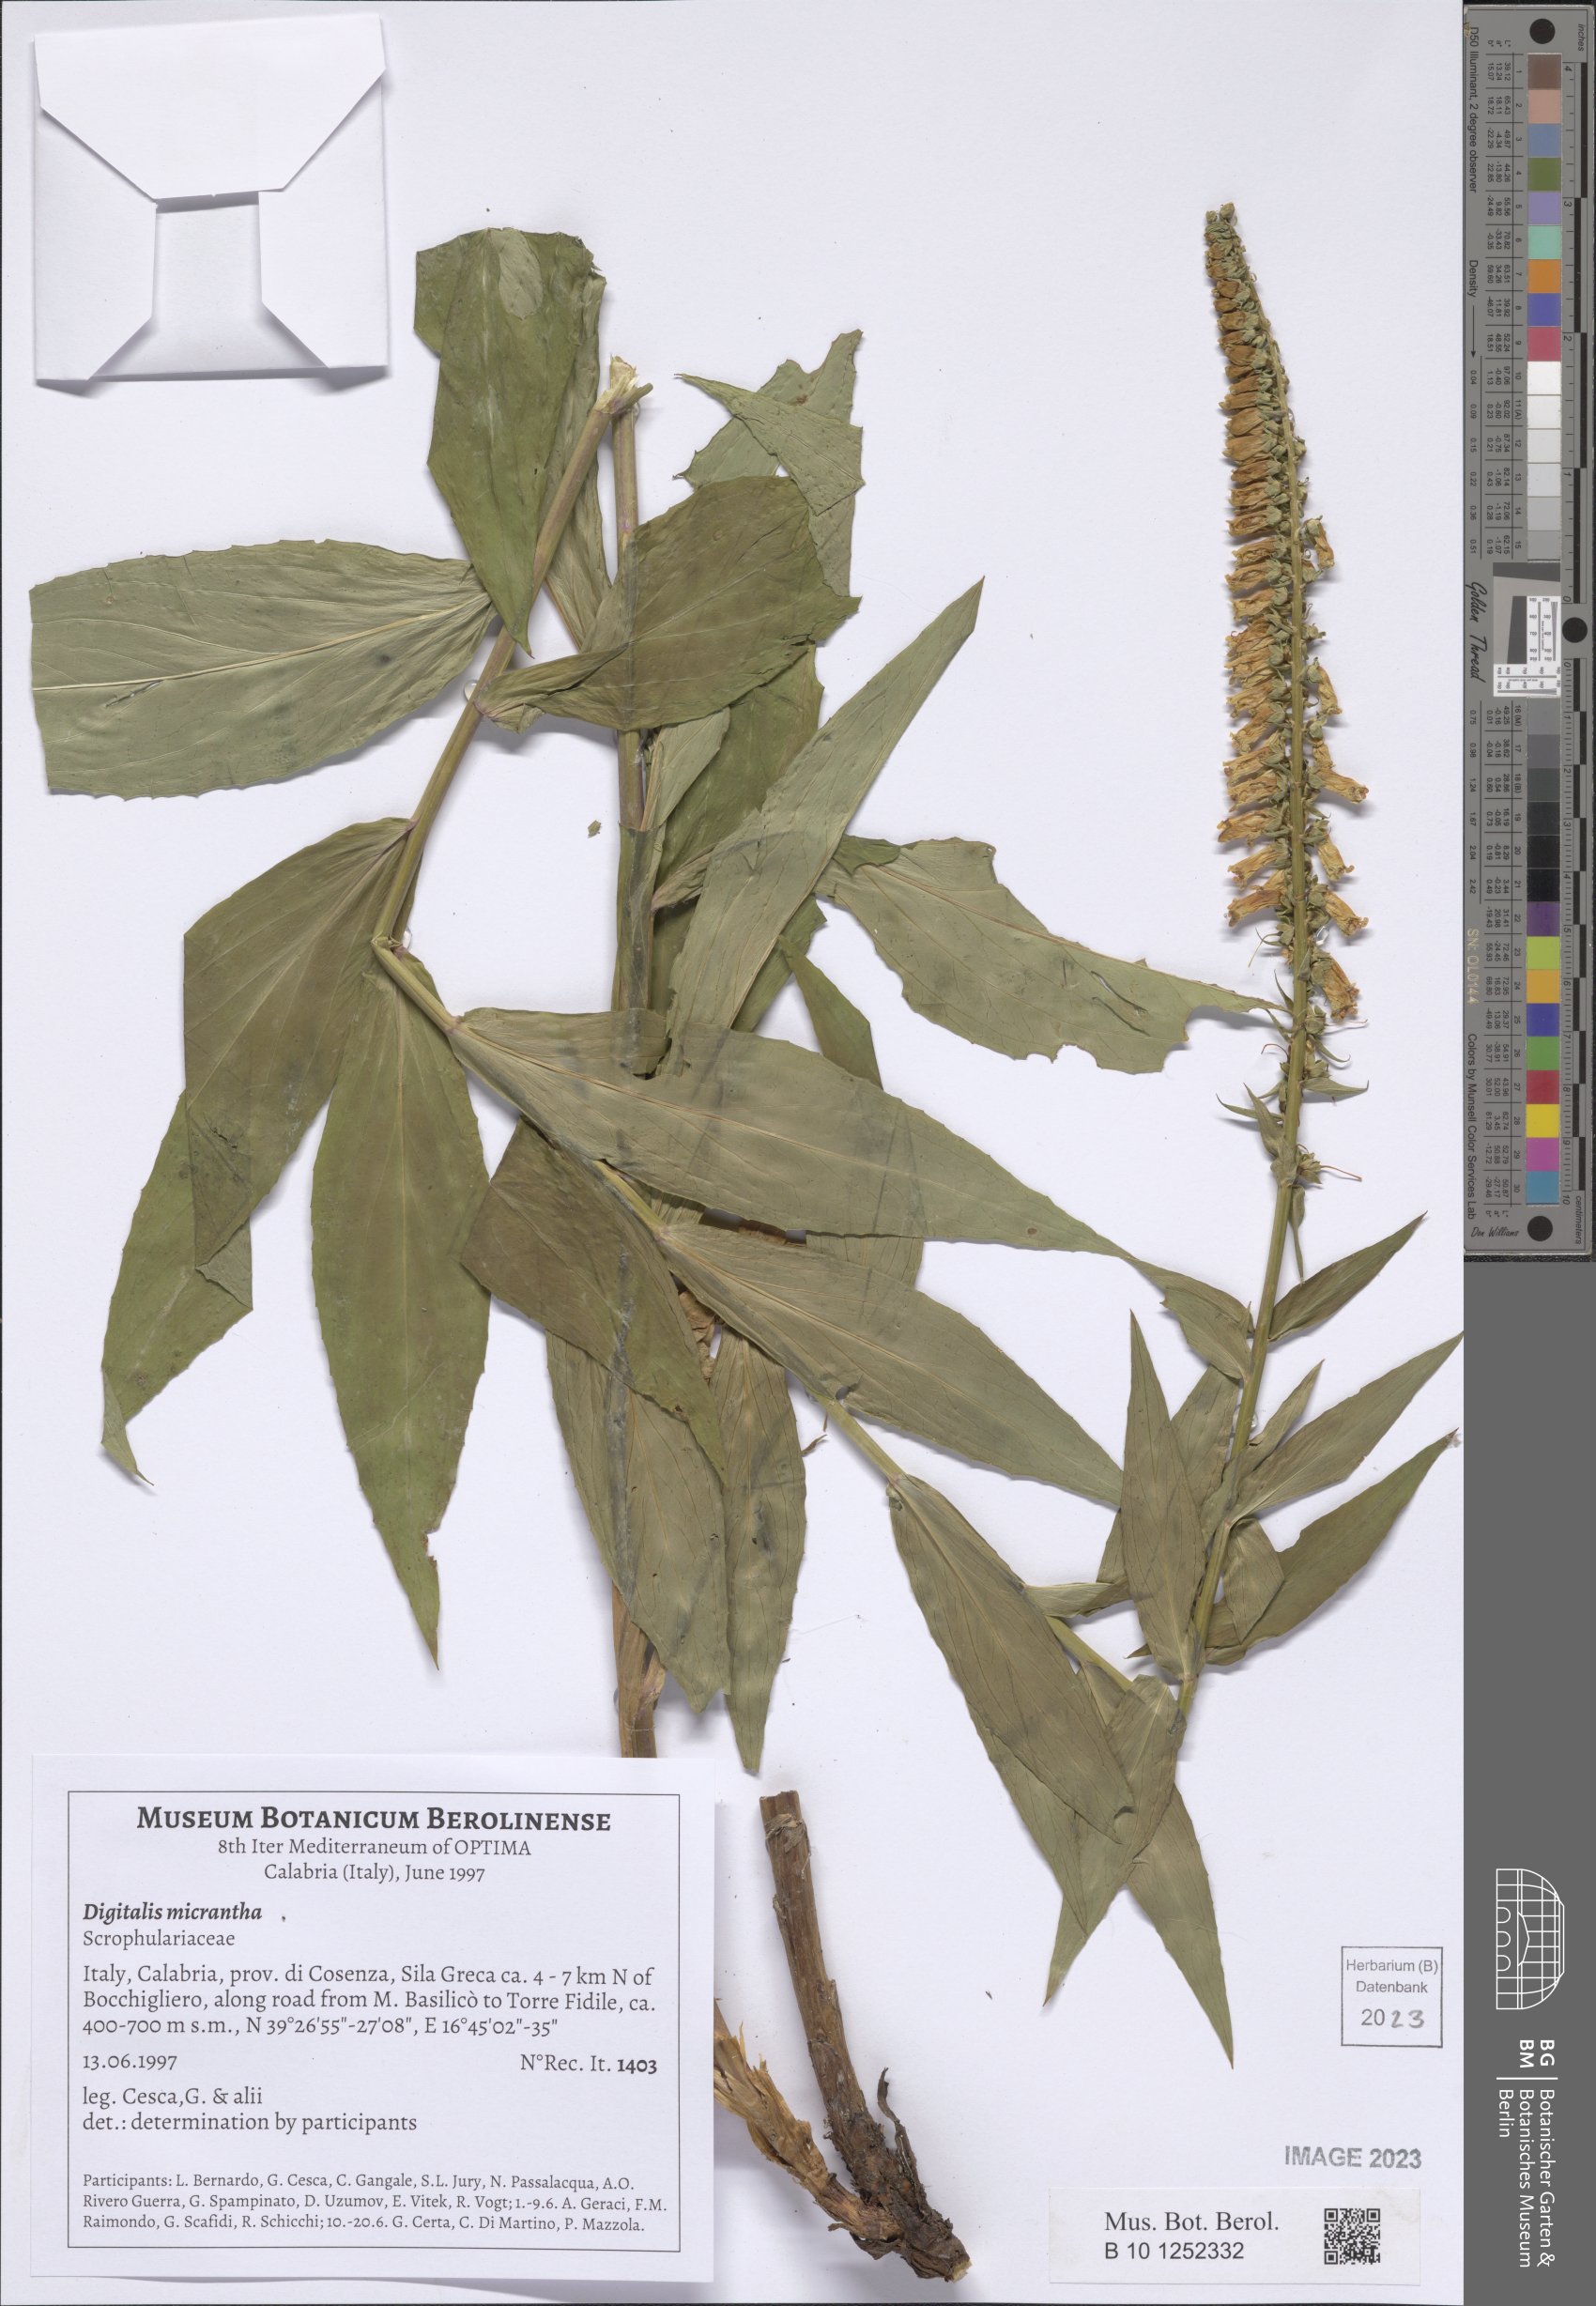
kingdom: Plantae
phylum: Tracheophyta
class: Magnoliopsida
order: Lamiales
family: Plantaginaceae
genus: Digitalis
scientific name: Digitalis lutea
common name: Straw foxglove
